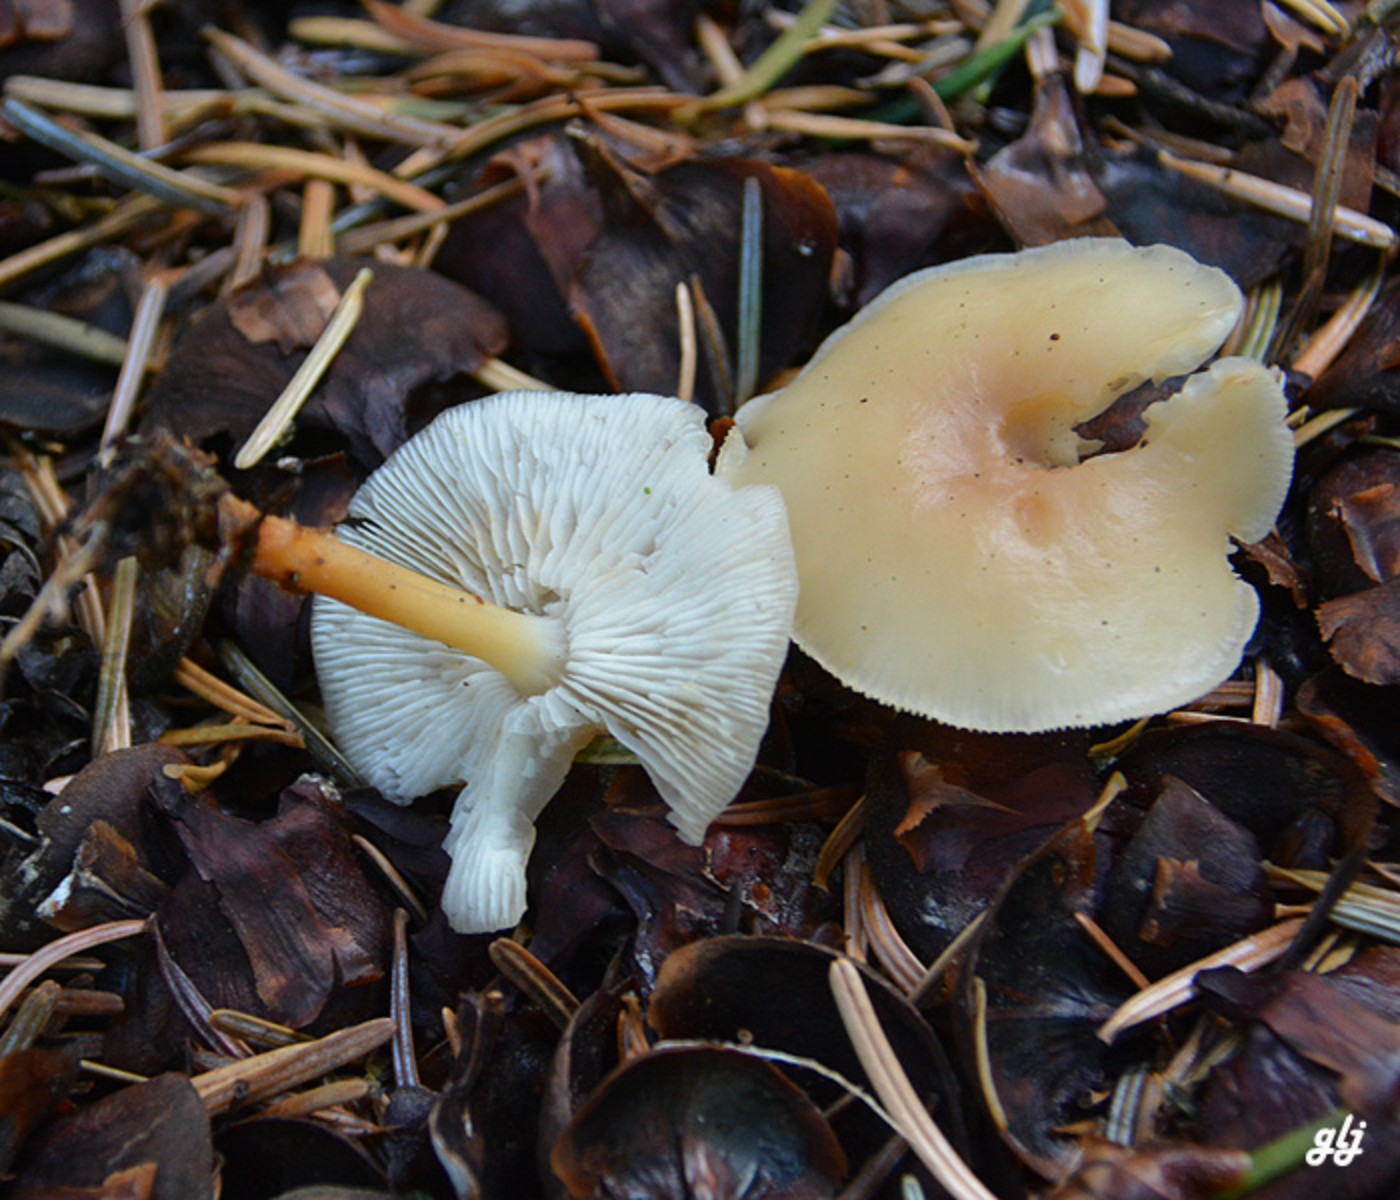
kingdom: Fungi
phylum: Basidiomycota
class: Agaricomycetes
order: Agaricales
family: Omphalotaceae
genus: Gymnopus
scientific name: Gymnopus
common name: fladhat
